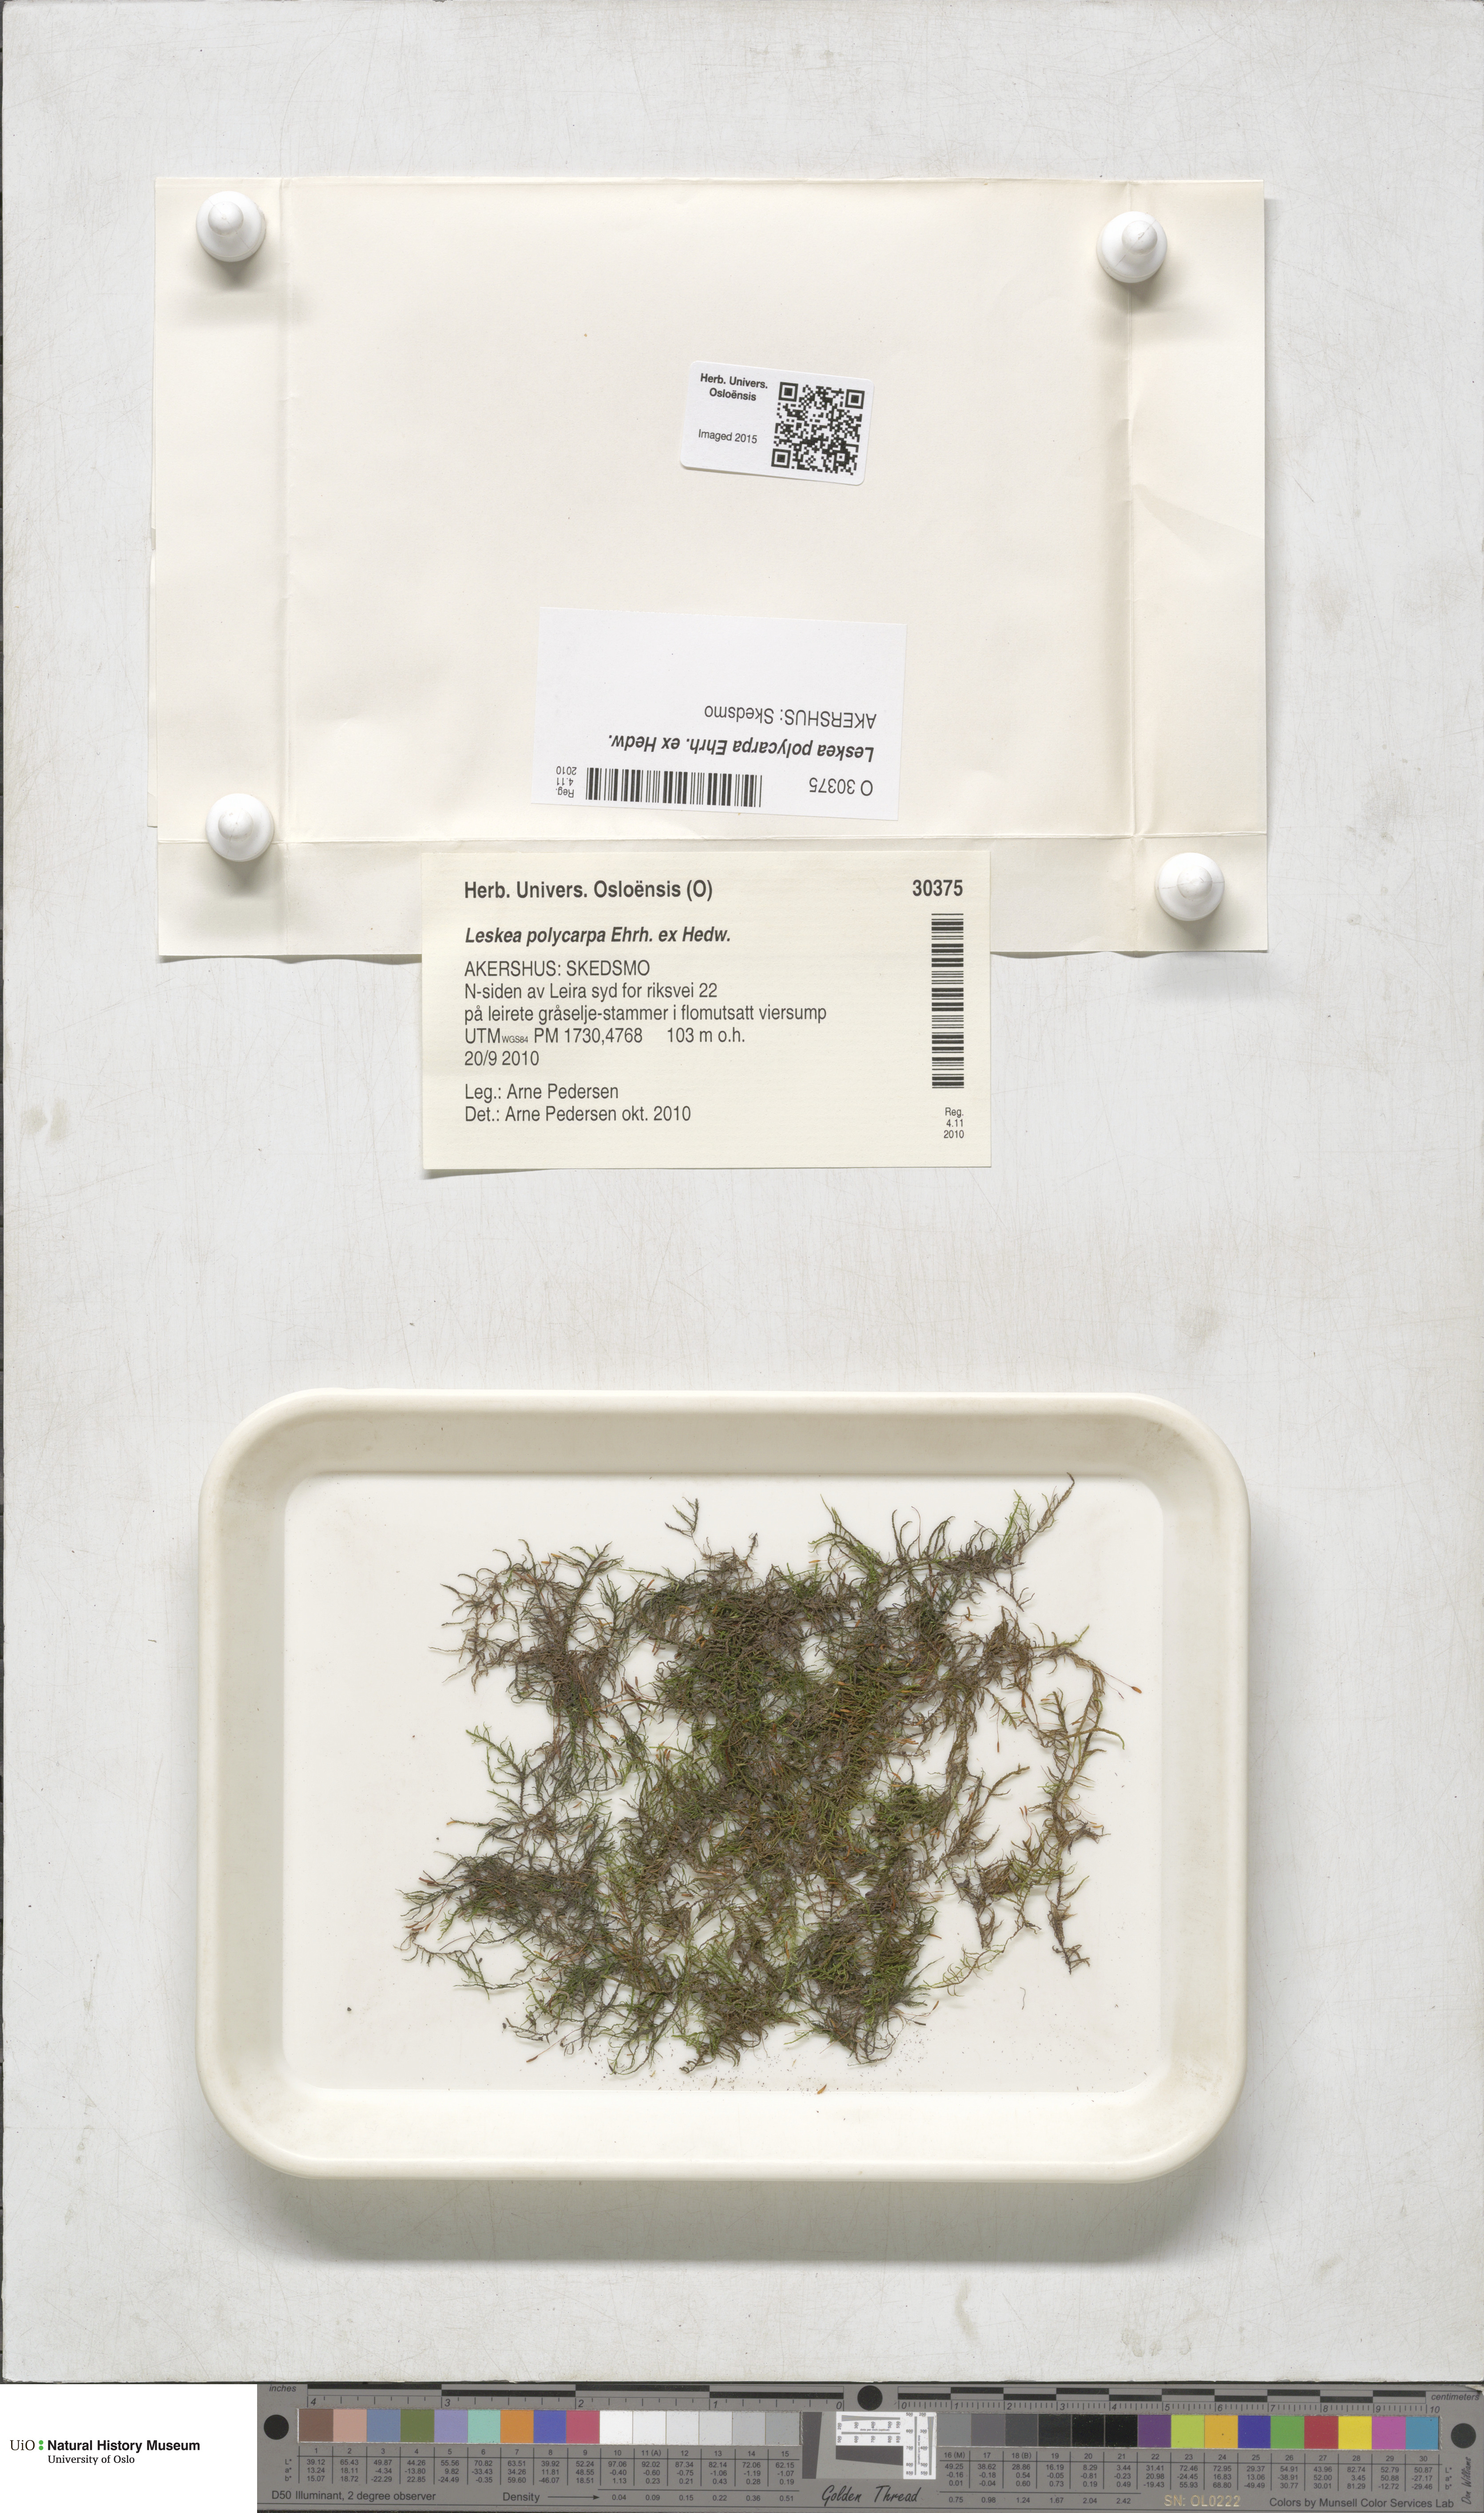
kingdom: Plantae
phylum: Bryophyta
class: Bryopsida
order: Hypnales
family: Leskeaceae
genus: Leskea
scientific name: Leskea polycarpa
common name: Many-fruited leske's moss
